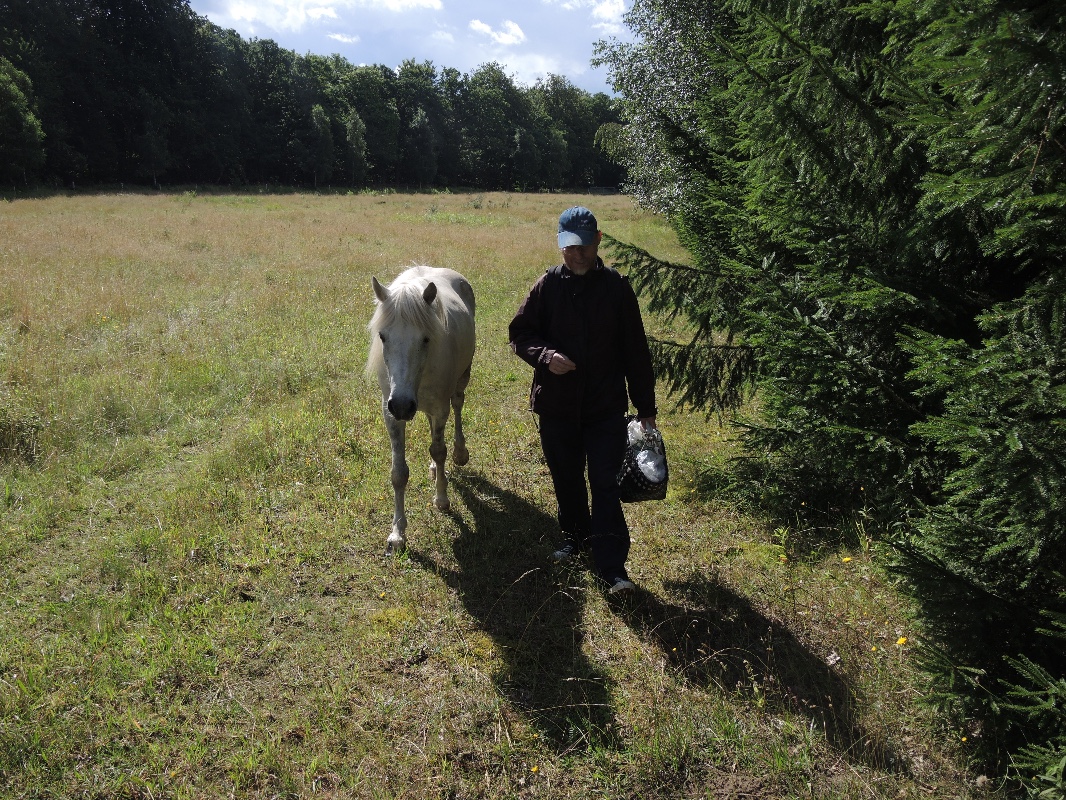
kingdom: Fungi
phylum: Basidiomycota
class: Agaricomycetes
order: Boletales
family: Gomphidiaceae
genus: Gomphidius
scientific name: Gomphidius glutinosus
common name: grå slimslør
